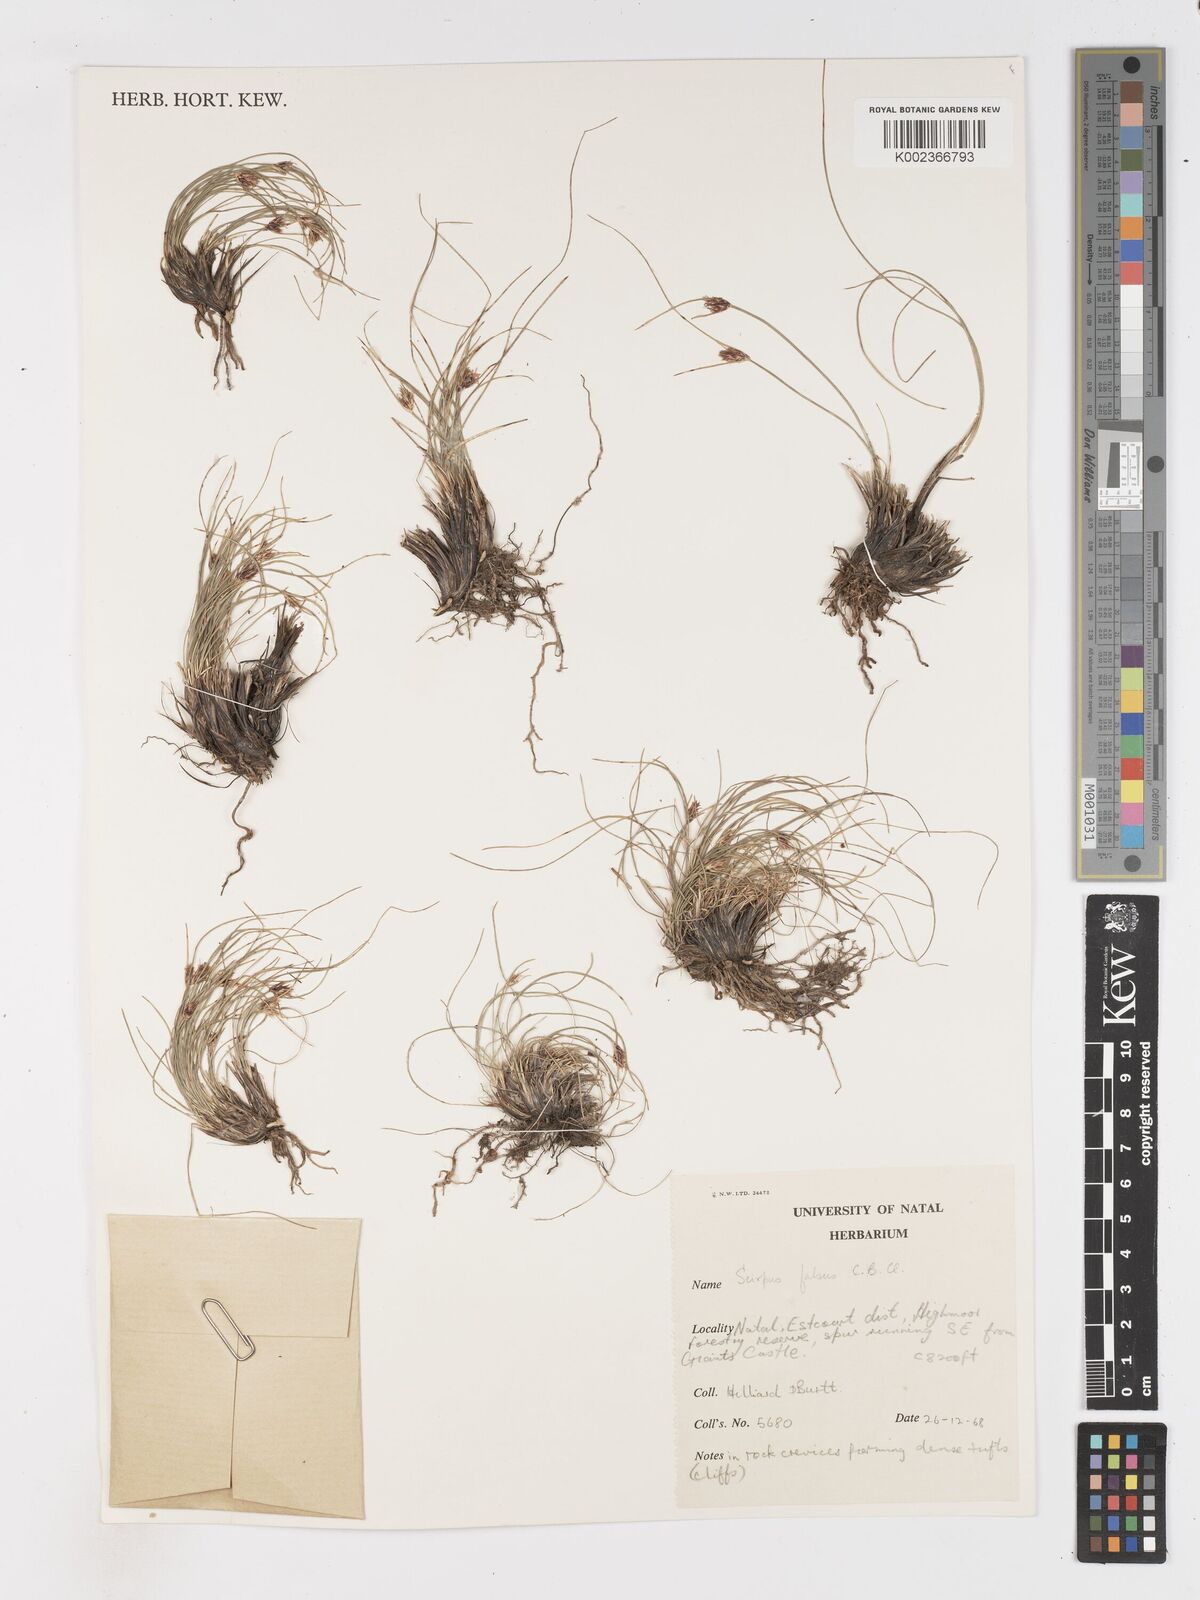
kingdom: Plantae
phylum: Tracheophyta
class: Liliopsida
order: Poales
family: Cyperaceae
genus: Dracoscirpoides
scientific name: Dracoscirpoides falsa
